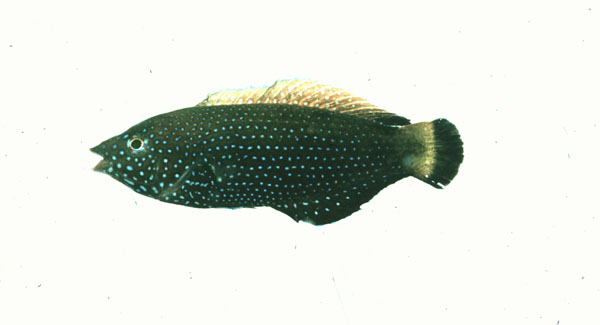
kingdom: Animalia
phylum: Chordata
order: Perciformes
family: Labridae
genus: Anampses
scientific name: Anampses caeruleopunctatus
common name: Bluespotted wrasse
